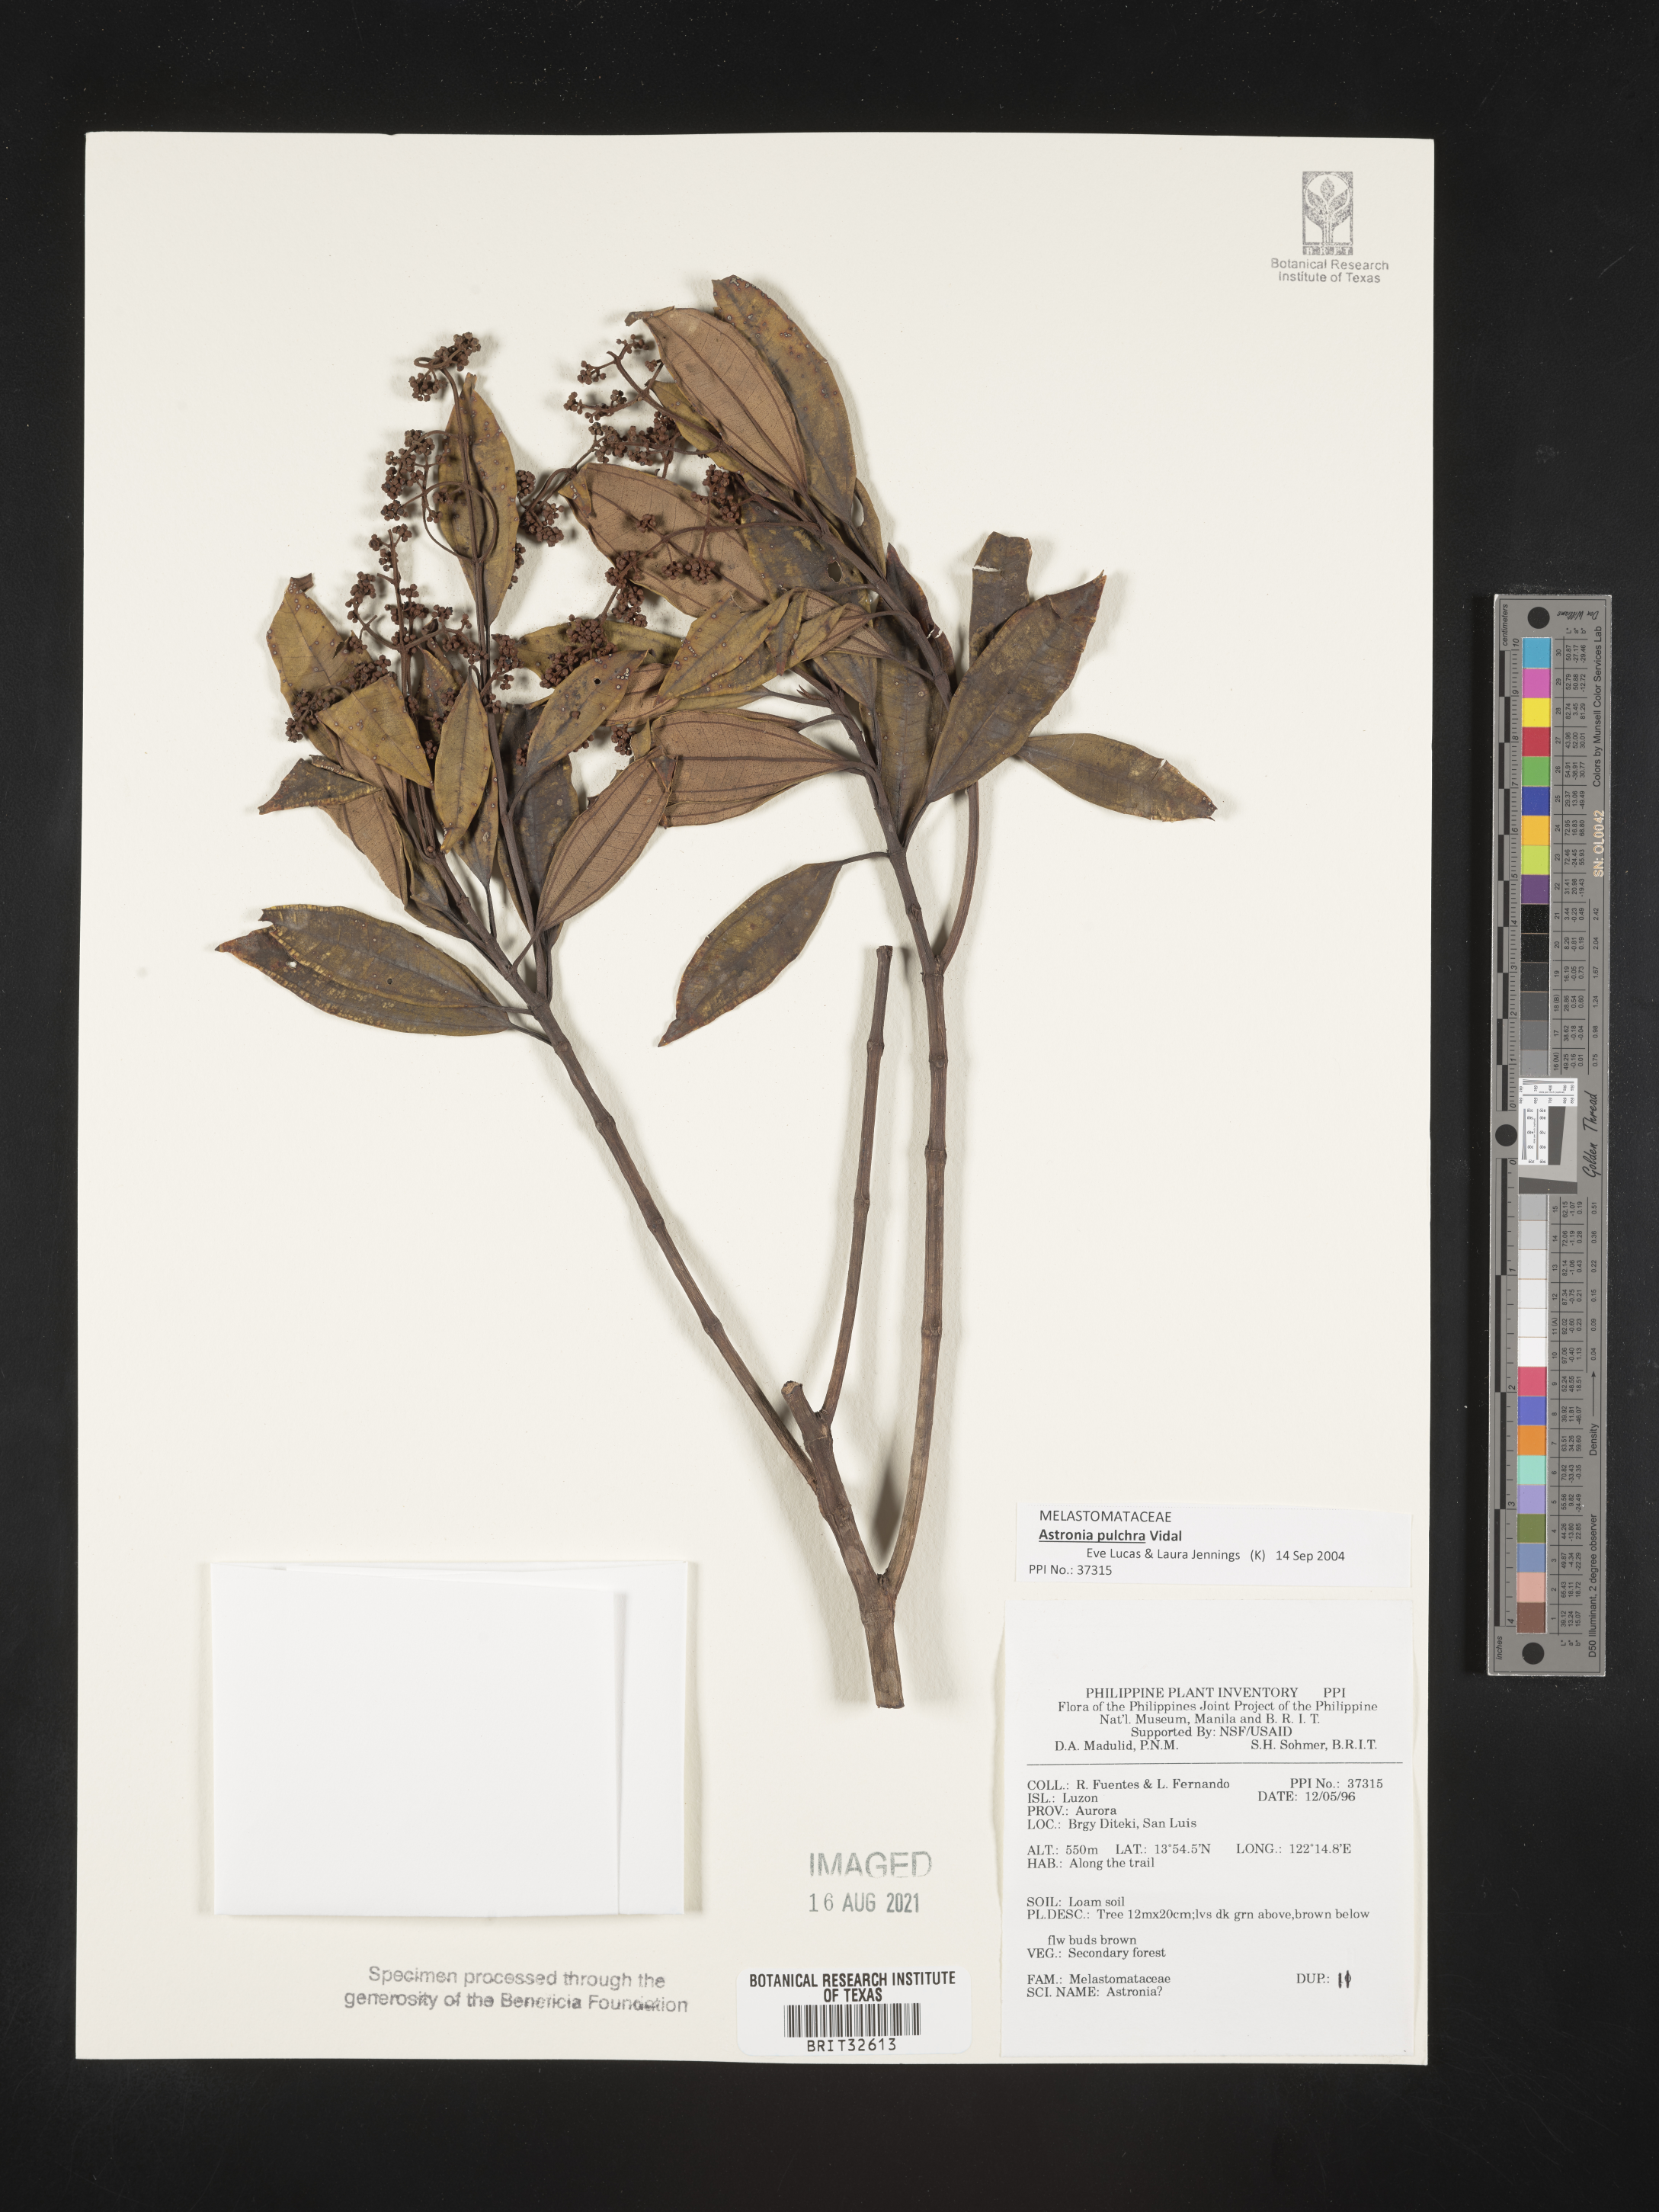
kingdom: Plantae
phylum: Tracheophyta
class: Magnoliopsida
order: Myrtales
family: Melastomataceae
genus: Astronia
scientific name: Astronia
